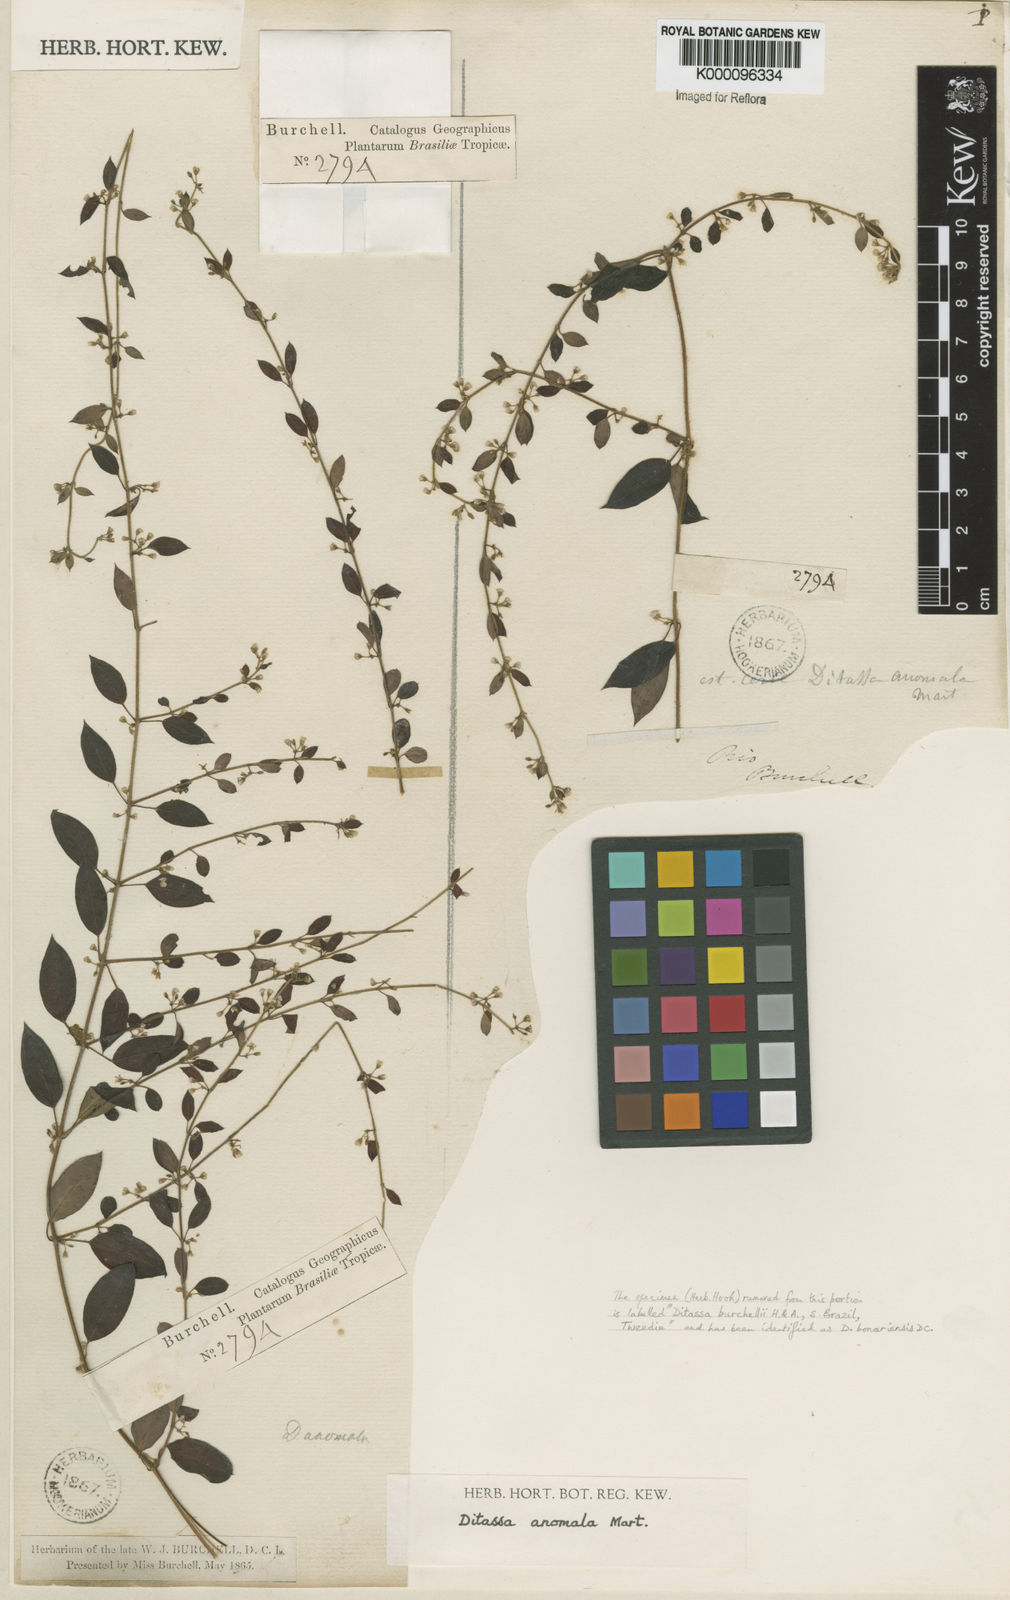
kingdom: Plantae
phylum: Tracheophyta
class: Magnoliopsida
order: Gentianales
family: Apocynaceae
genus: Metastelma
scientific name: Metastelma burchellii
